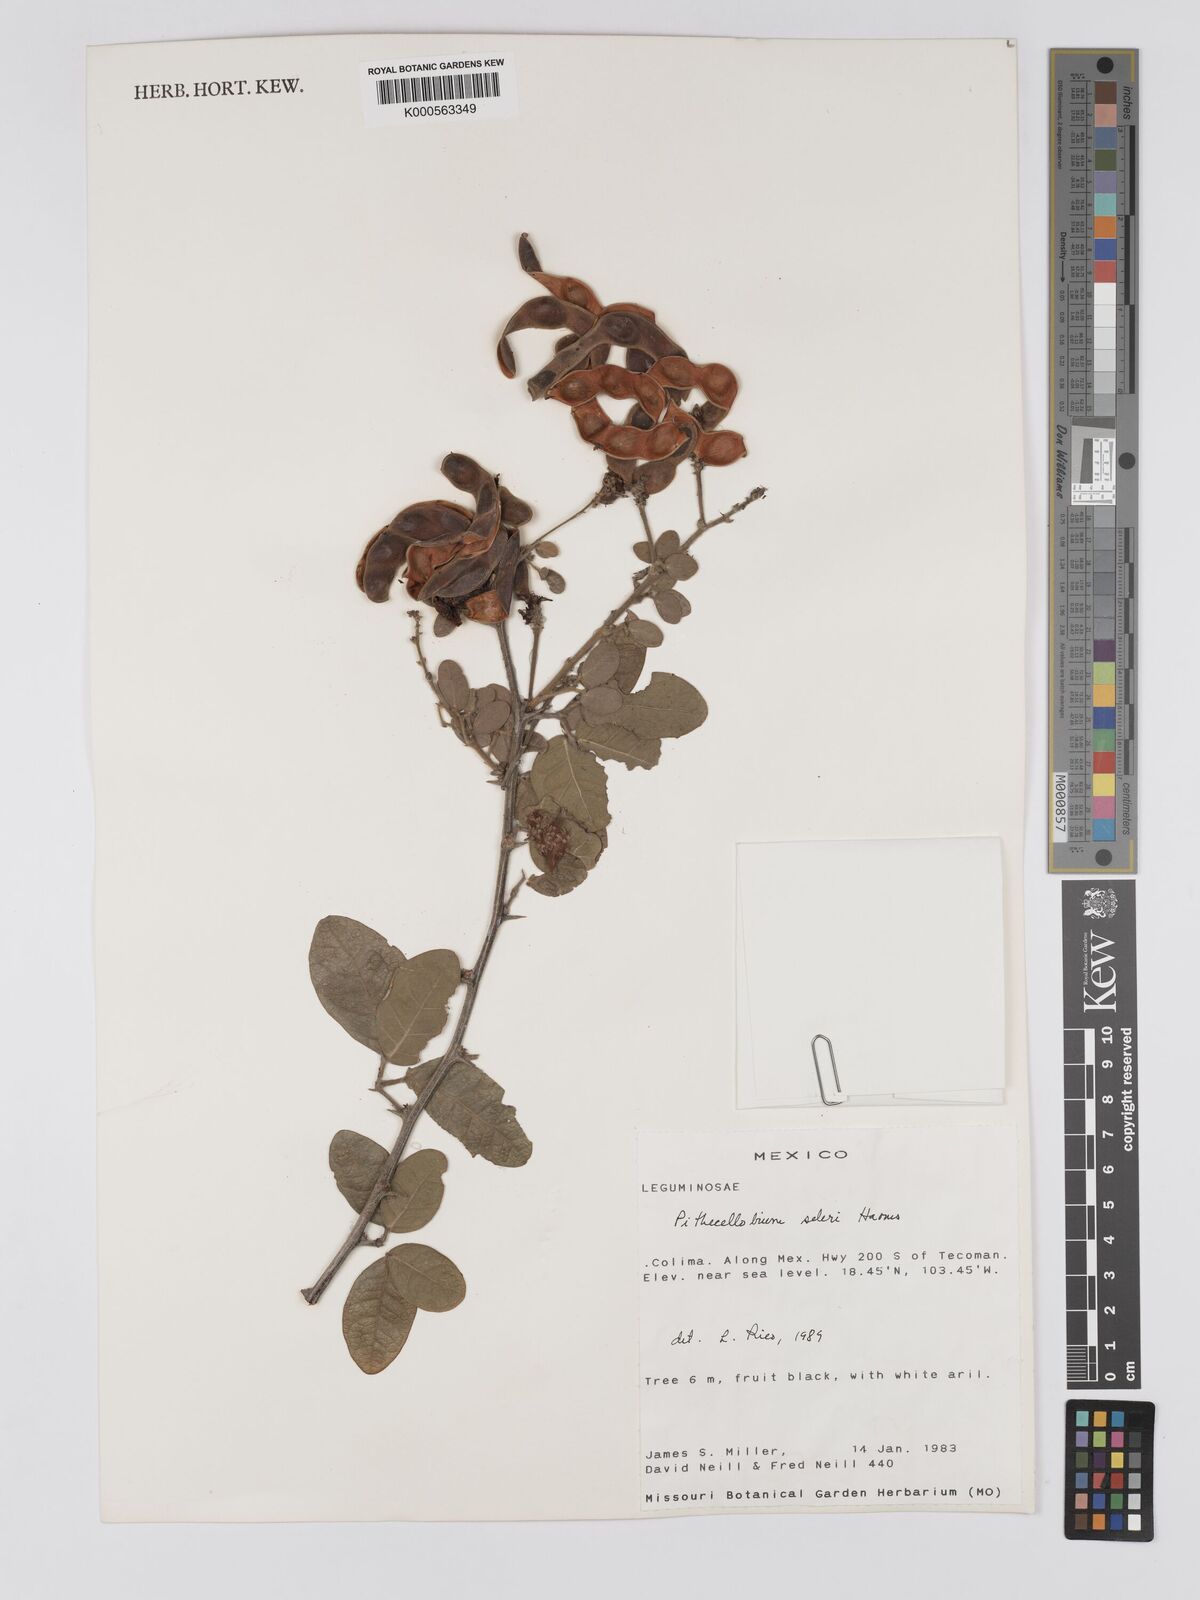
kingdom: Plantae
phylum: Tracheophyta
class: Magnoliopsida
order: Fabales
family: Fabaceae
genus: Pithecellobium
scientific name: Pithecellobium unguis-cati
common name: Cat's-claw
